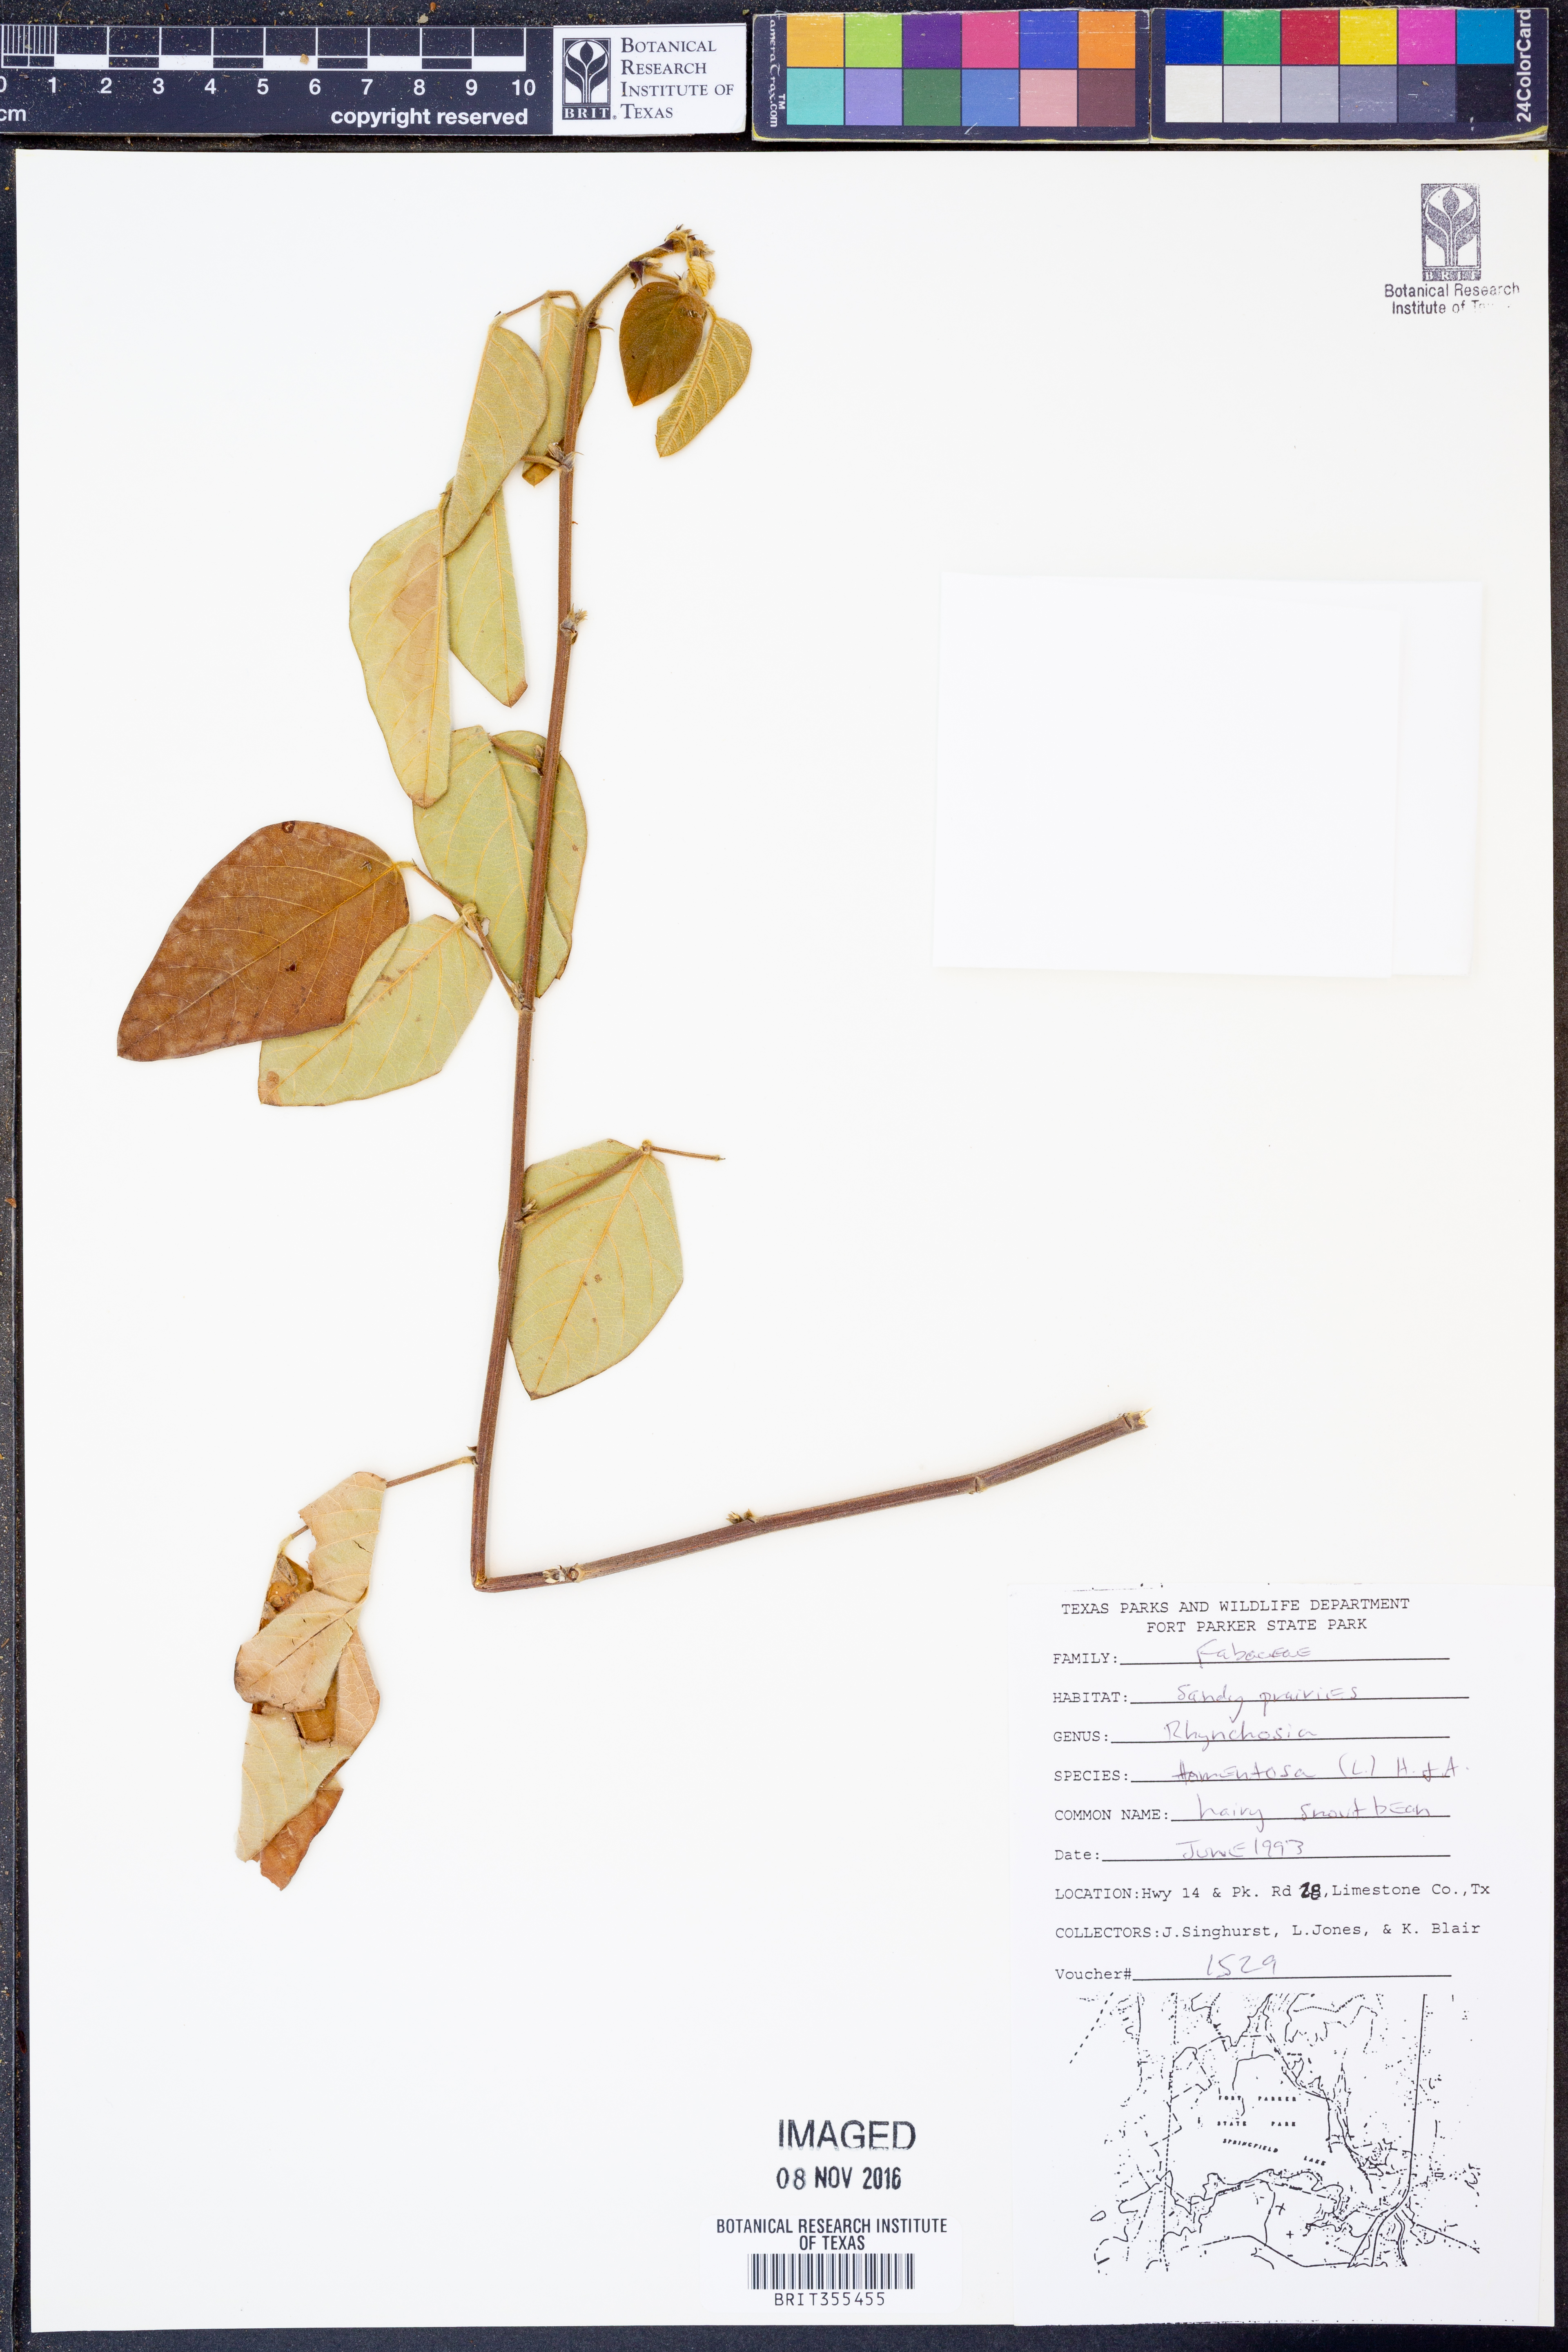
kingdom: Plantae
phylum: Tracheophyta
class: Magnoliopsida
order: Fabales
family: Fabaceae
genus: Rhynchosia
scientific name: Rhynchosia rothii
